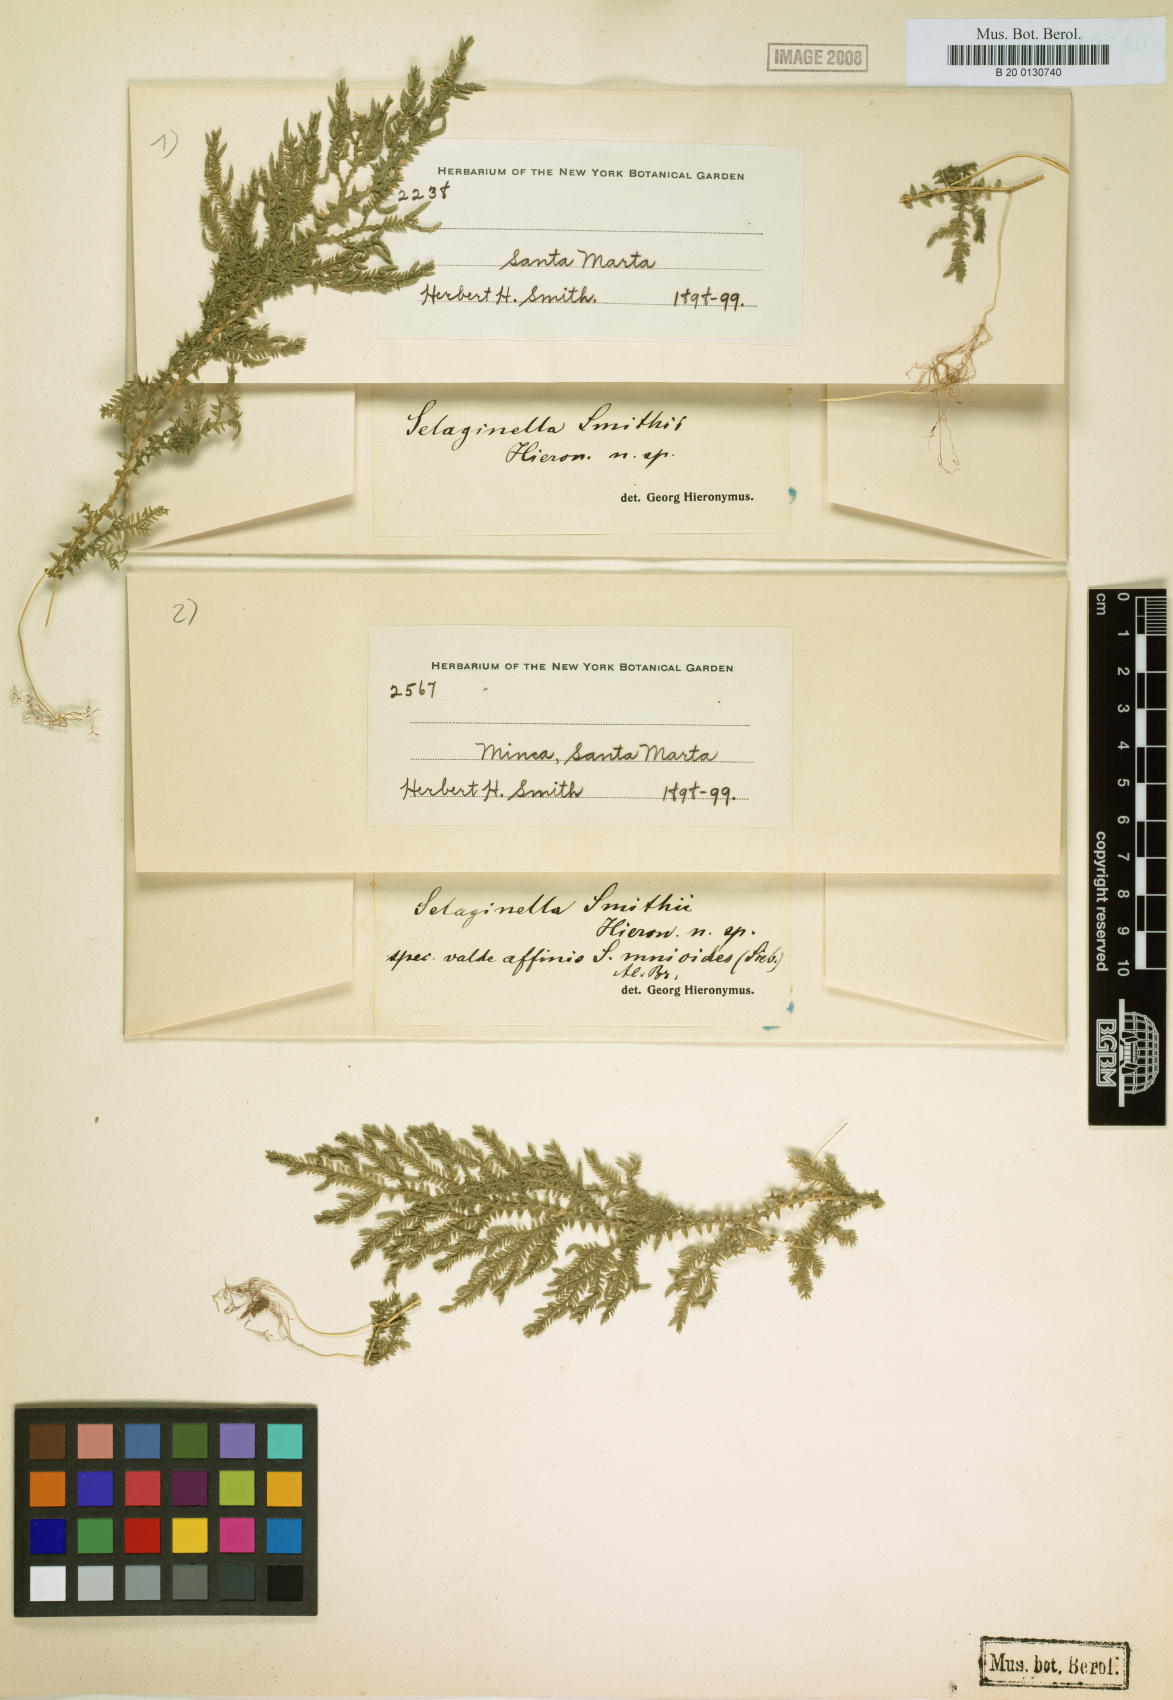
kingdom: Plantae
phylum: Tracheophyta
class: Lycopodiopsida
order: Selaginellales
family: Selaginellaceae
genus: Selaginella
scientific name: Selaginella vaginata
